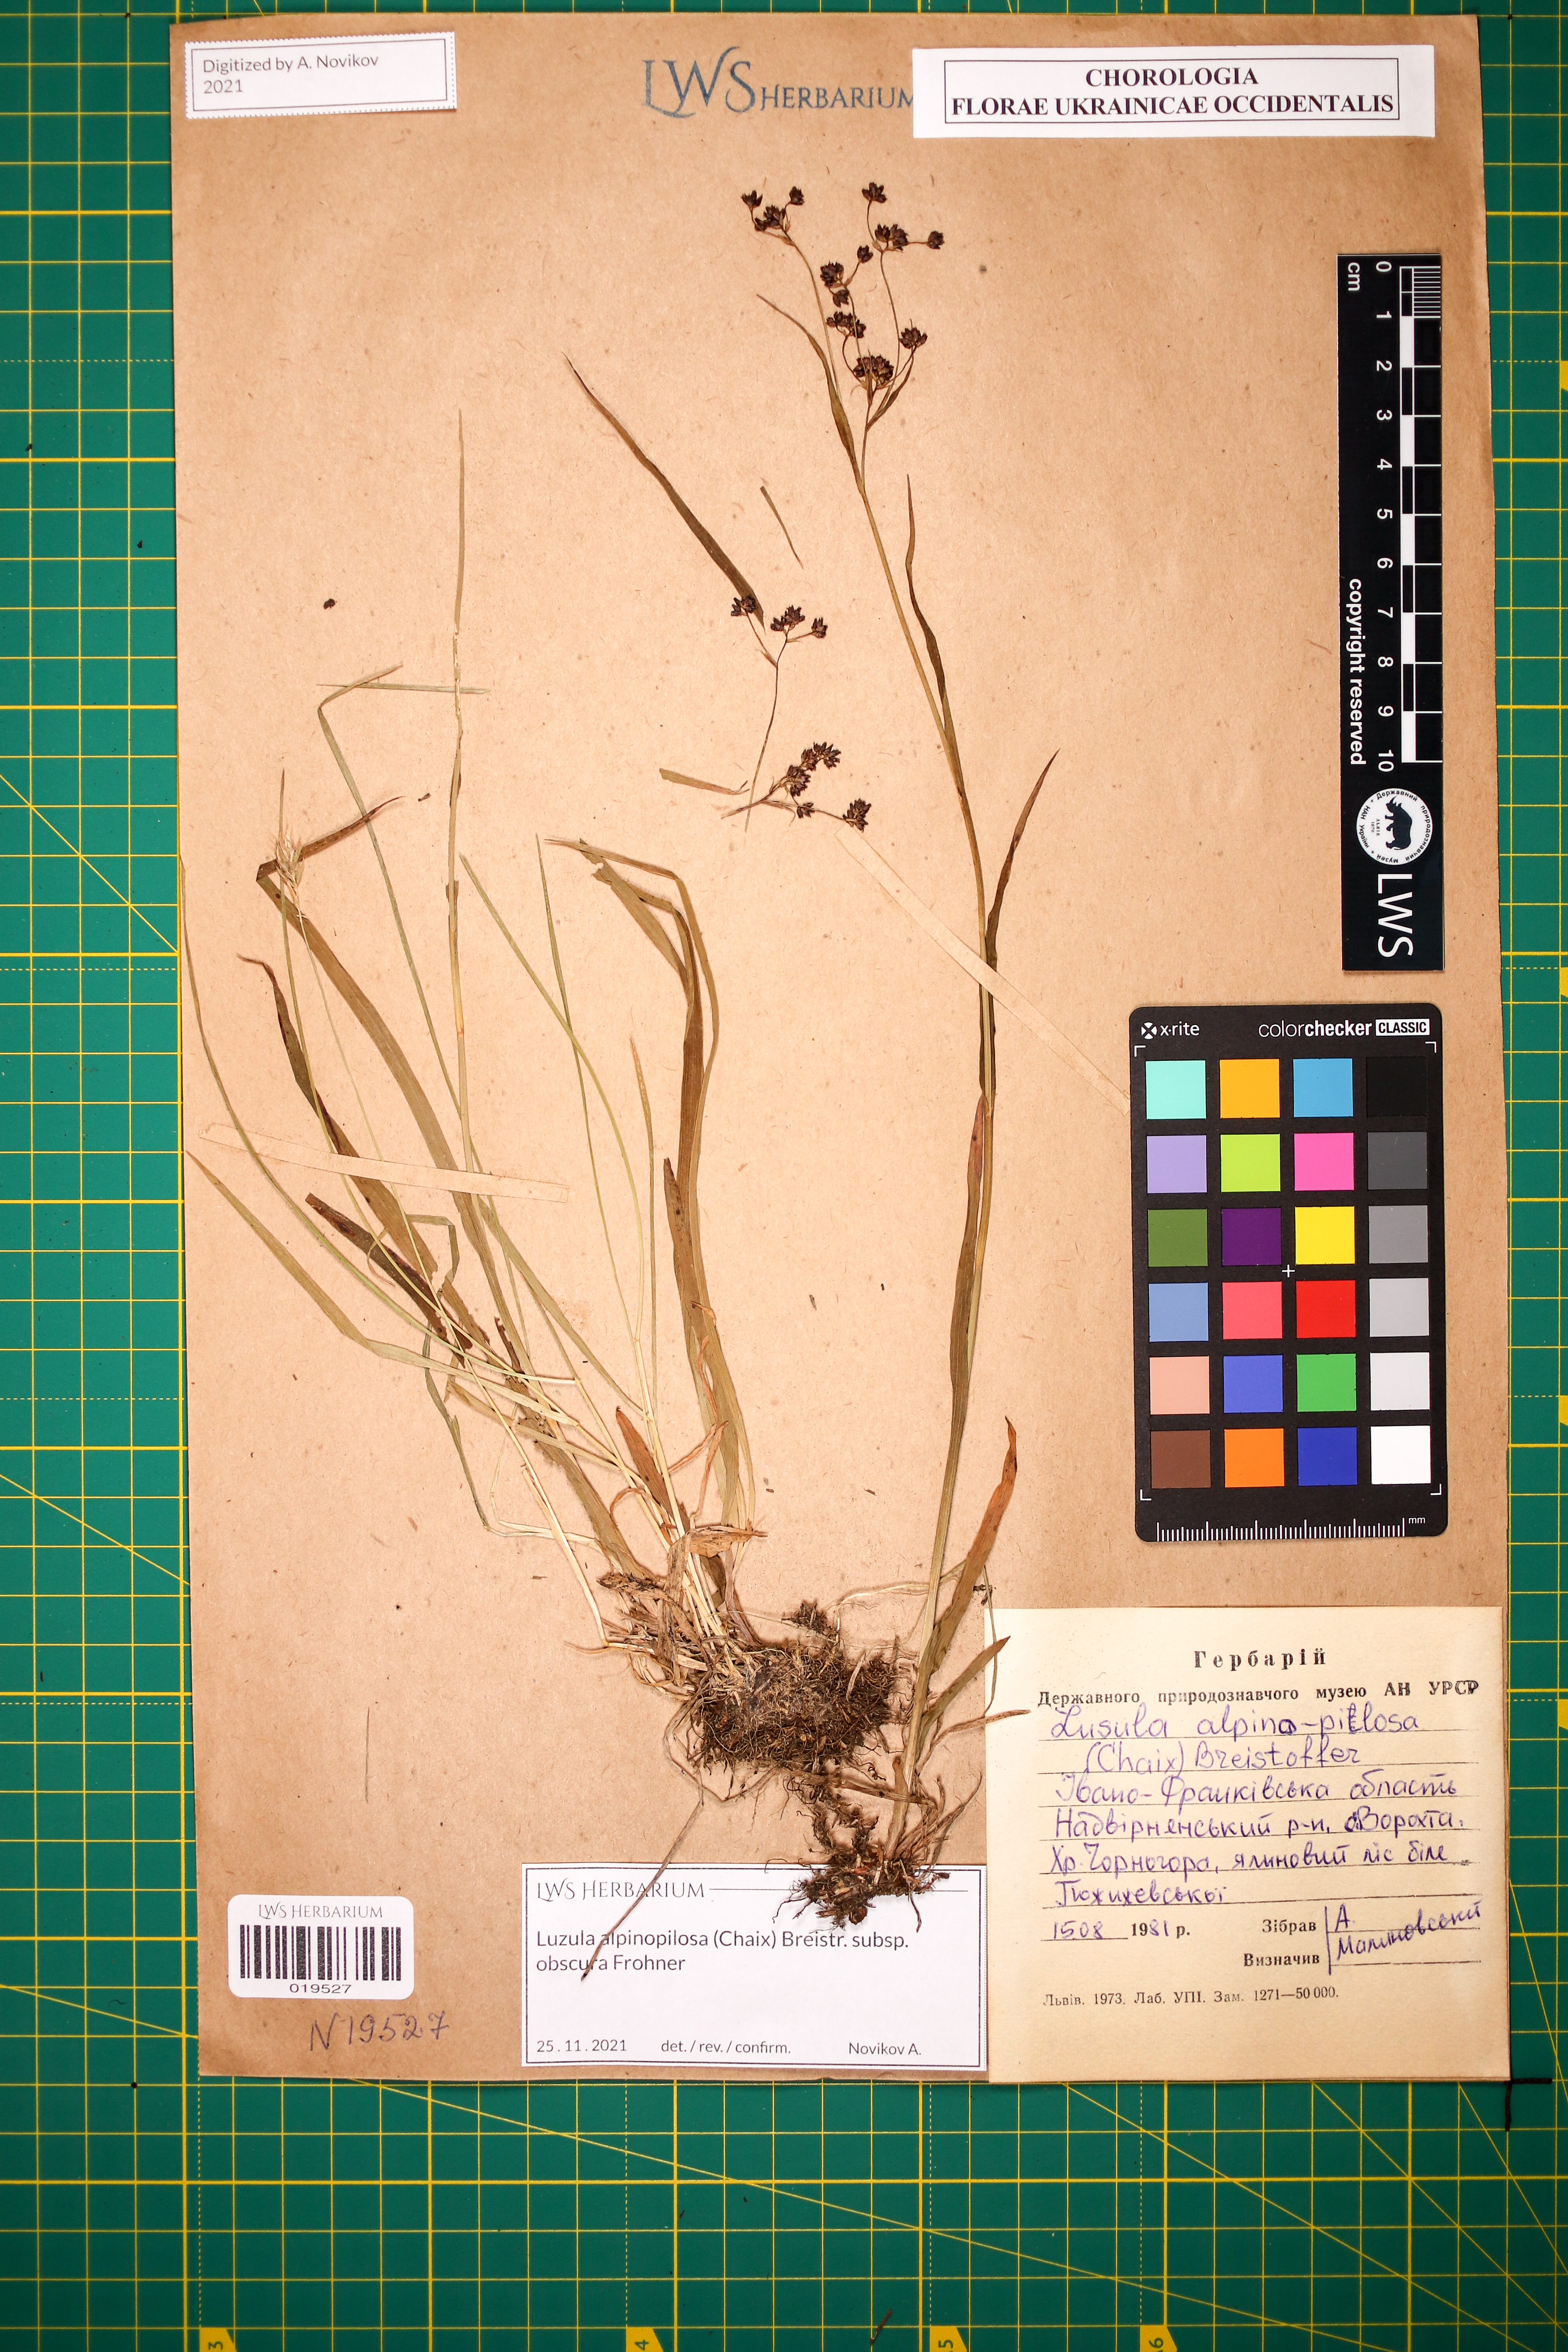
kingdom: Plantae
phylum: Tracheophyta
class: Liliopsida
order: Poales
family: Juncaceae
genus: Luzula
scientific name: Luzula alpinopilosa
